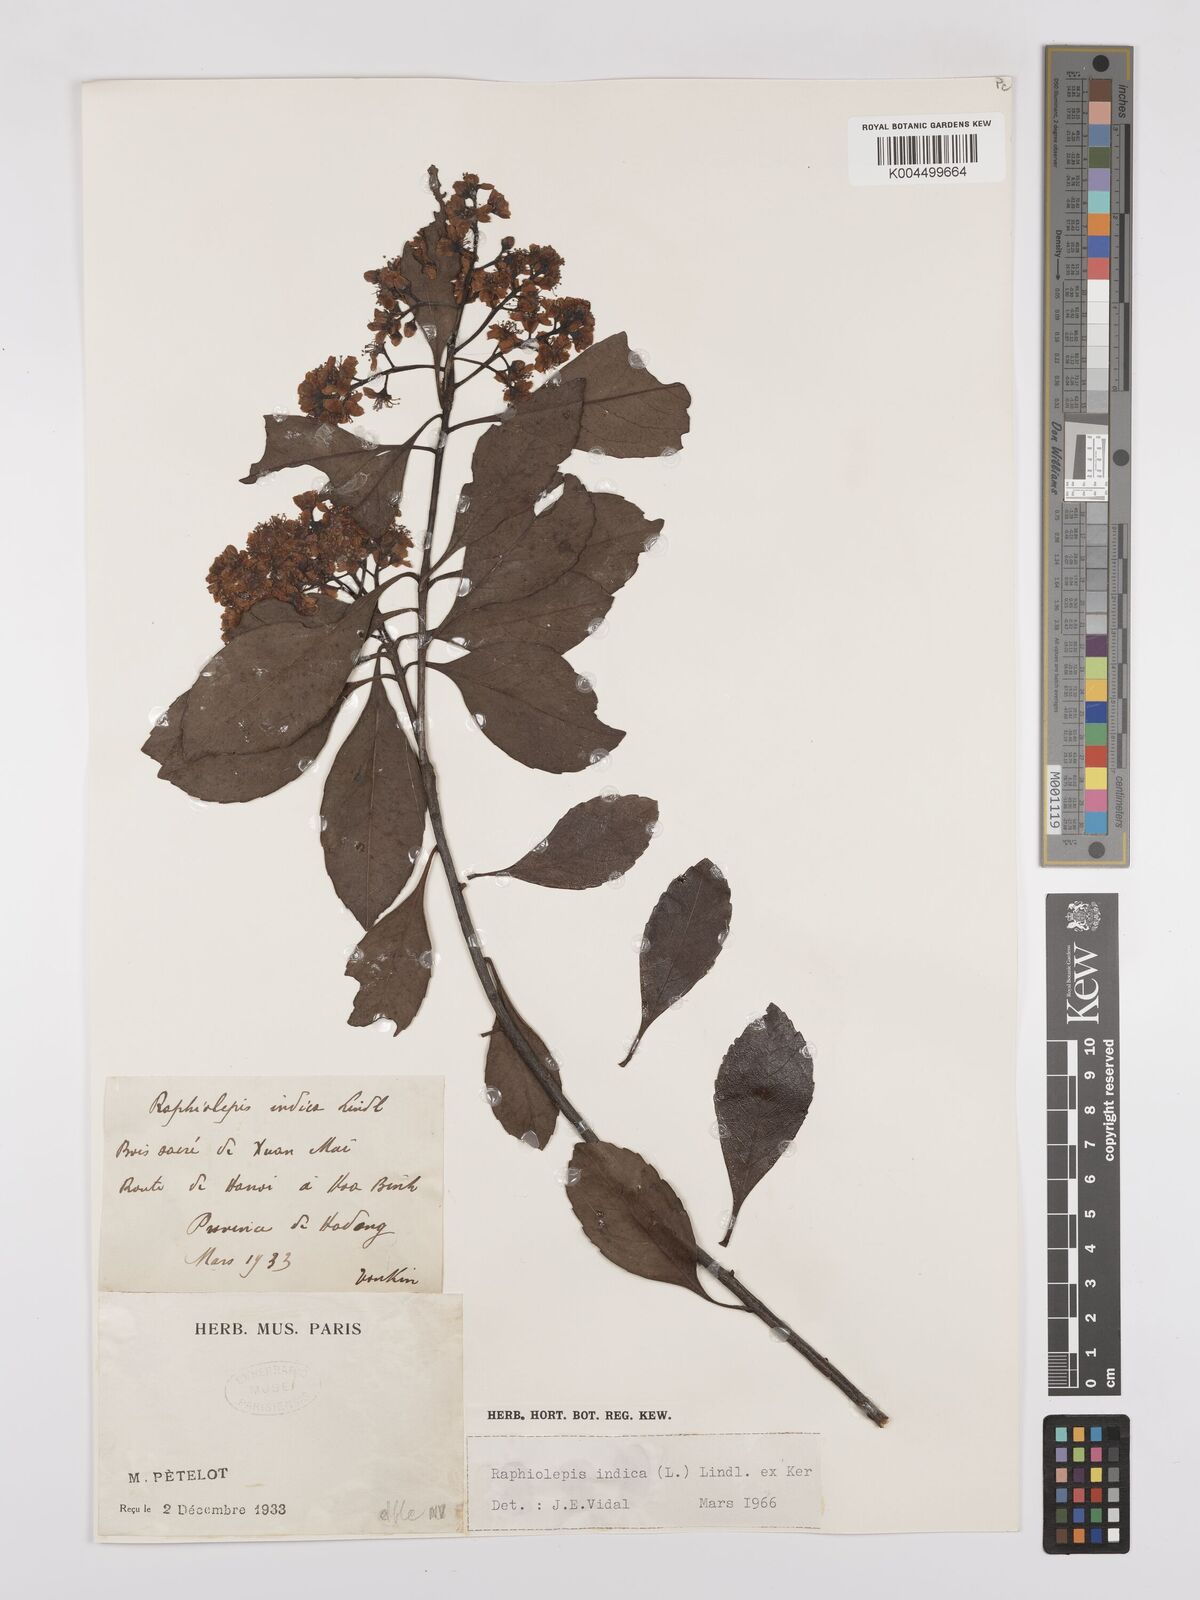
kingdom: Plantae
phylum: Tracheophyta
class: Magnoliopsida
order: Rosales
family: Rosaceae
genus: Rhaphiolepis
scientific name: Rhaphiolepis indica
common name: India-hawthorn
